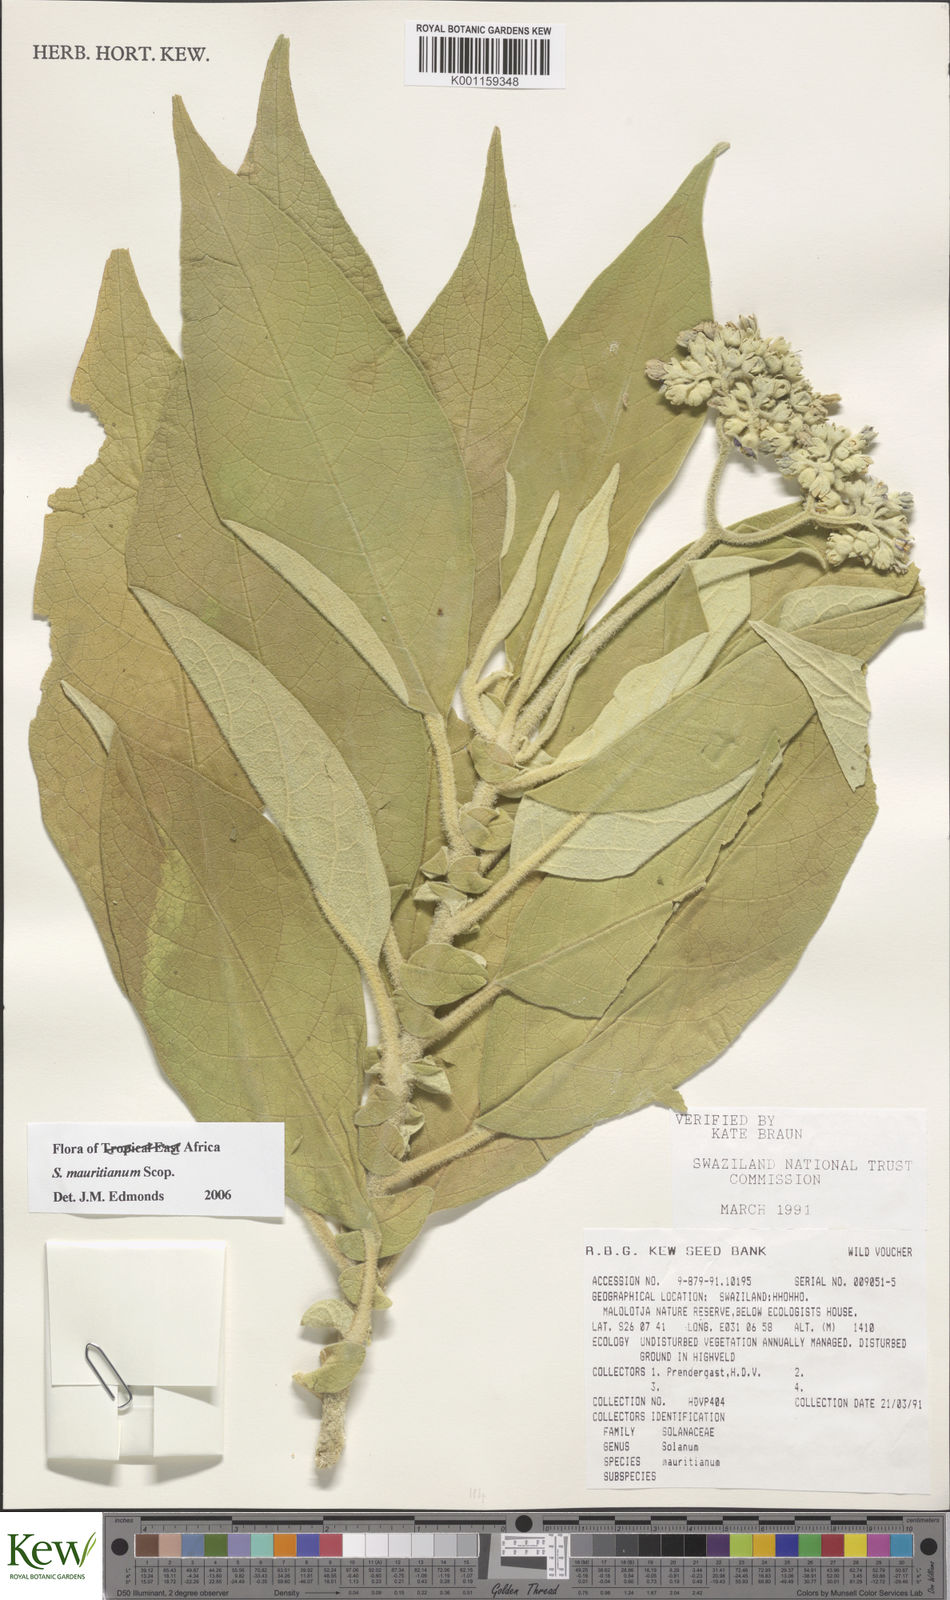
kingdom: Plantae
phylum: Tracheophyta
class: Magnoliopsida
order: Solanales
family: Solanaceae
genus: Solanum
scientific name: Solanum mauritianum
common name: Earleaf nightshade
